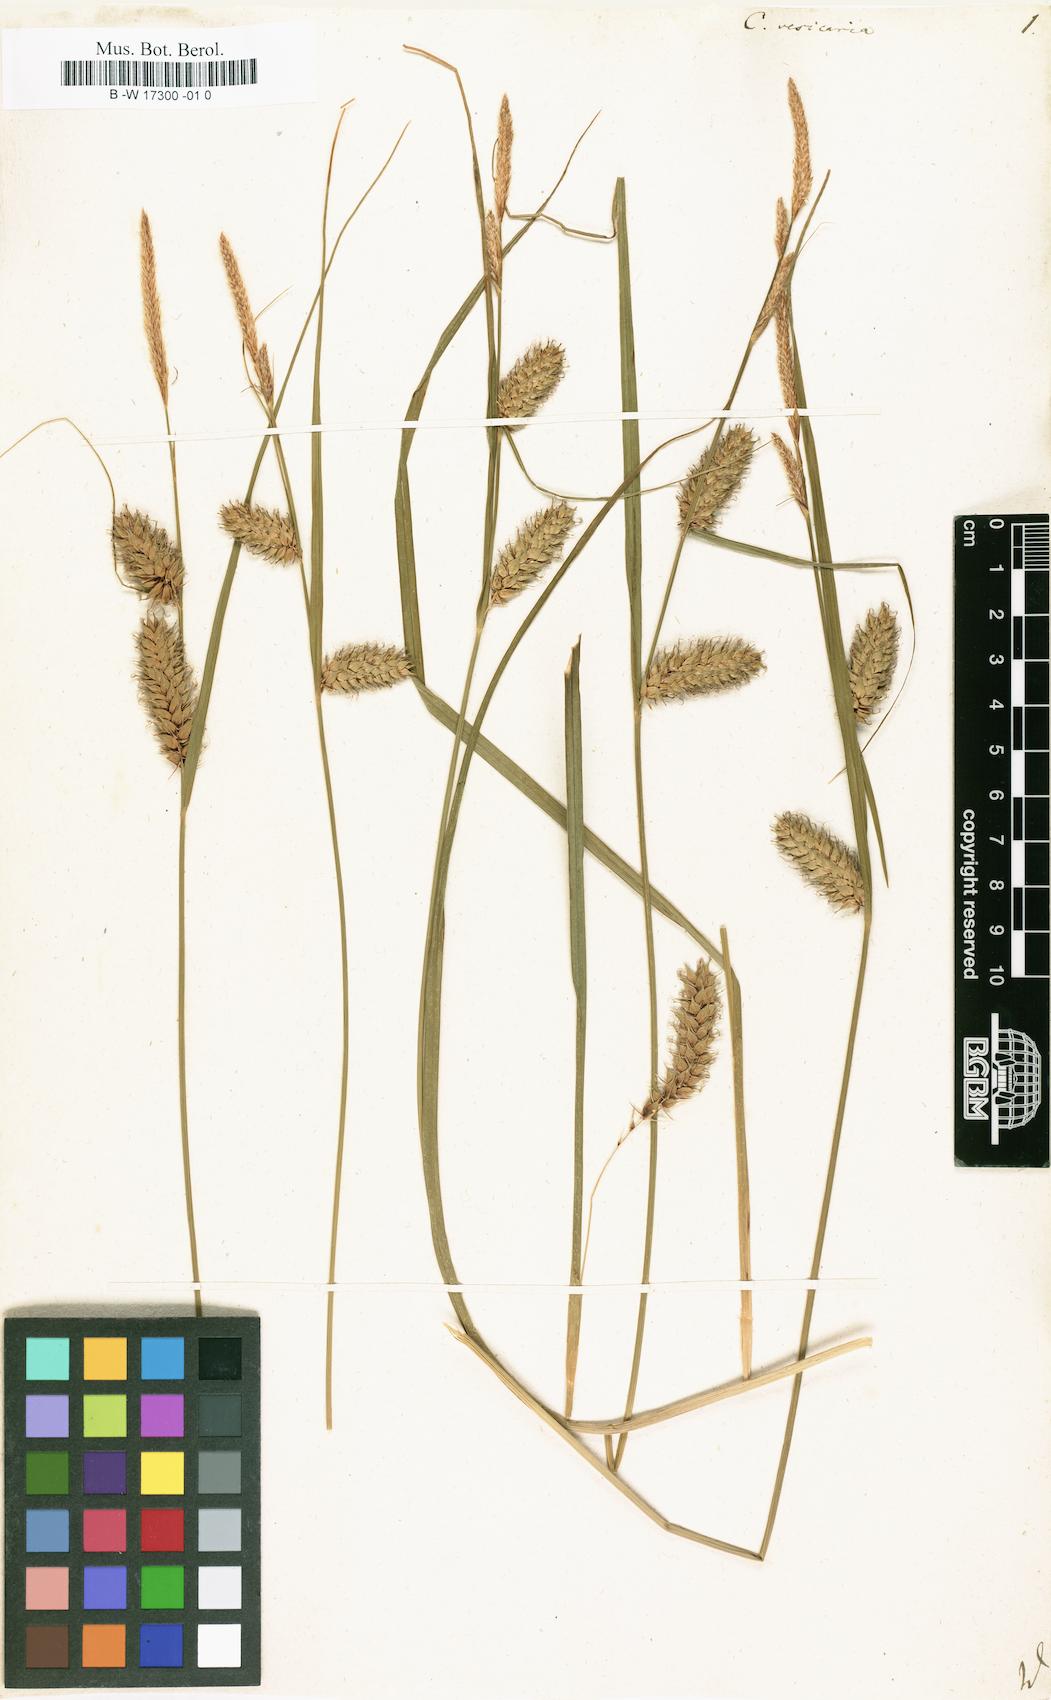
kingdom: Plantae
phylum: Tracheophyta
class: Liliopsida
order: Poales
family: Cyperaceae
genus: Carex
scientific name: Carex vesicaria
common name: Bladder-sedge
